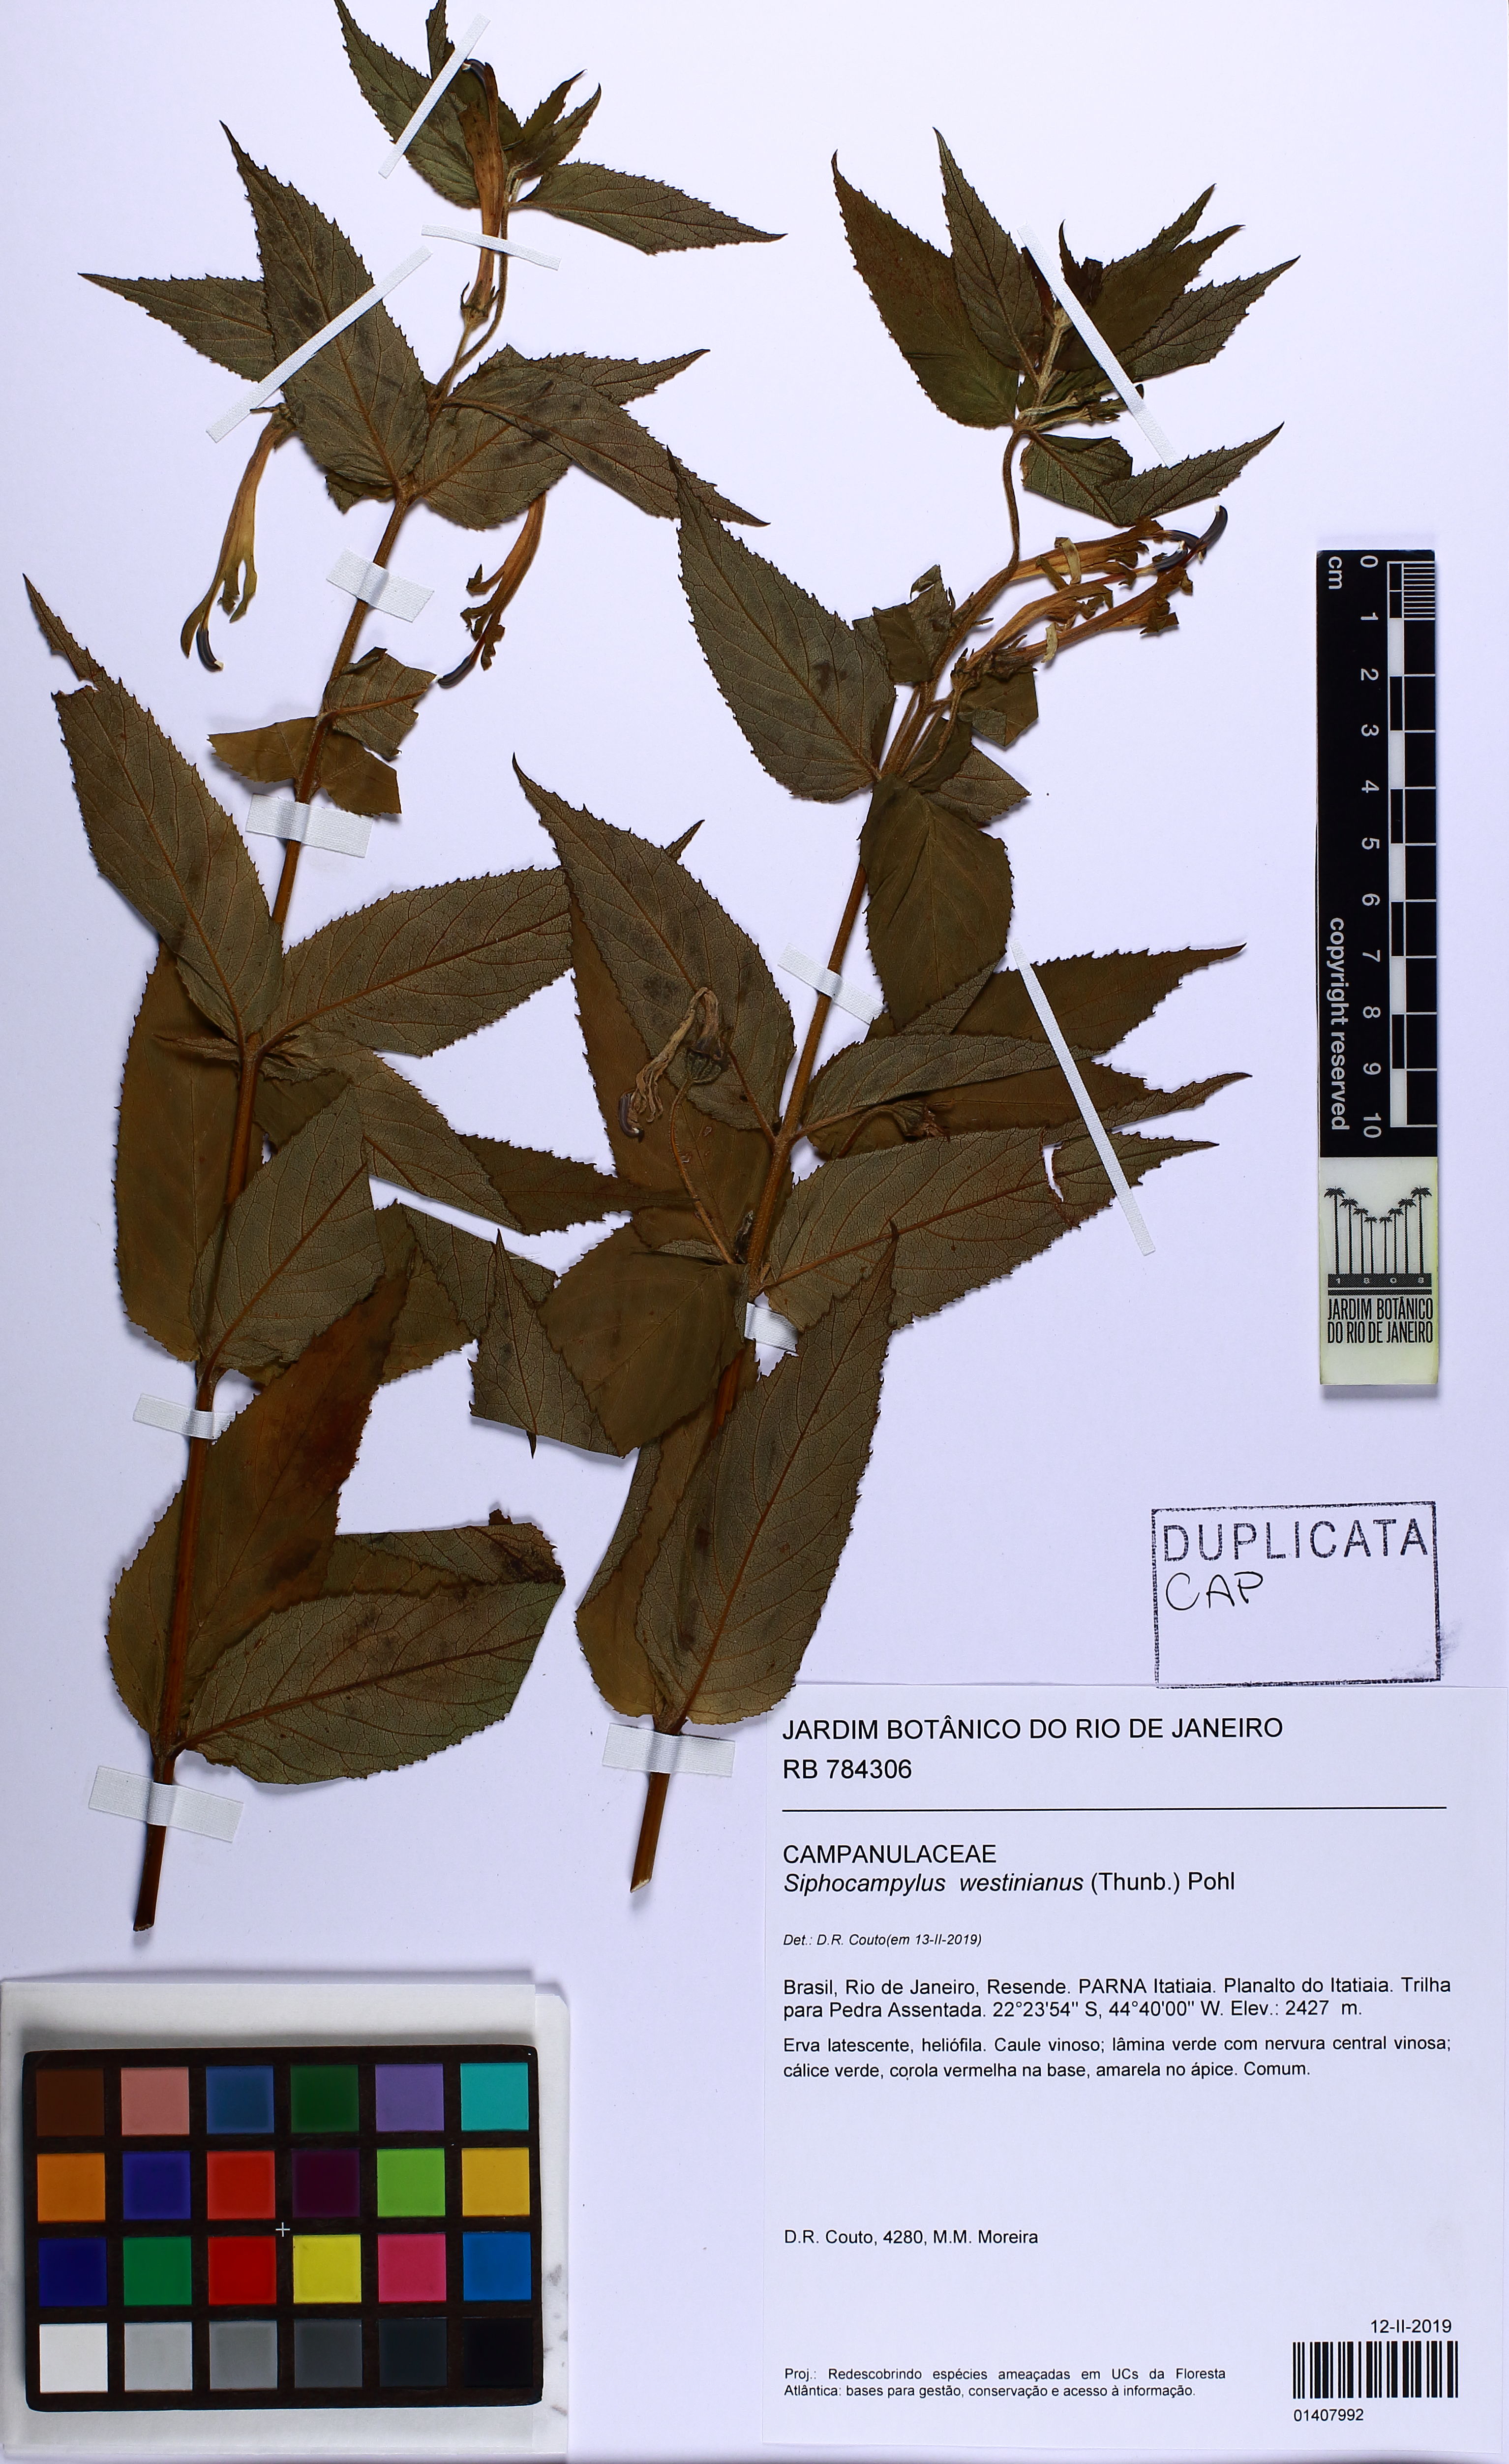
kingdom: Plantae
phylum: Tracheophyta
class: Magnoliopsida
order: Asterales
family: Campanulaceae
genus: Siphocampylus
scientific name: Siphocampylus westinianus
